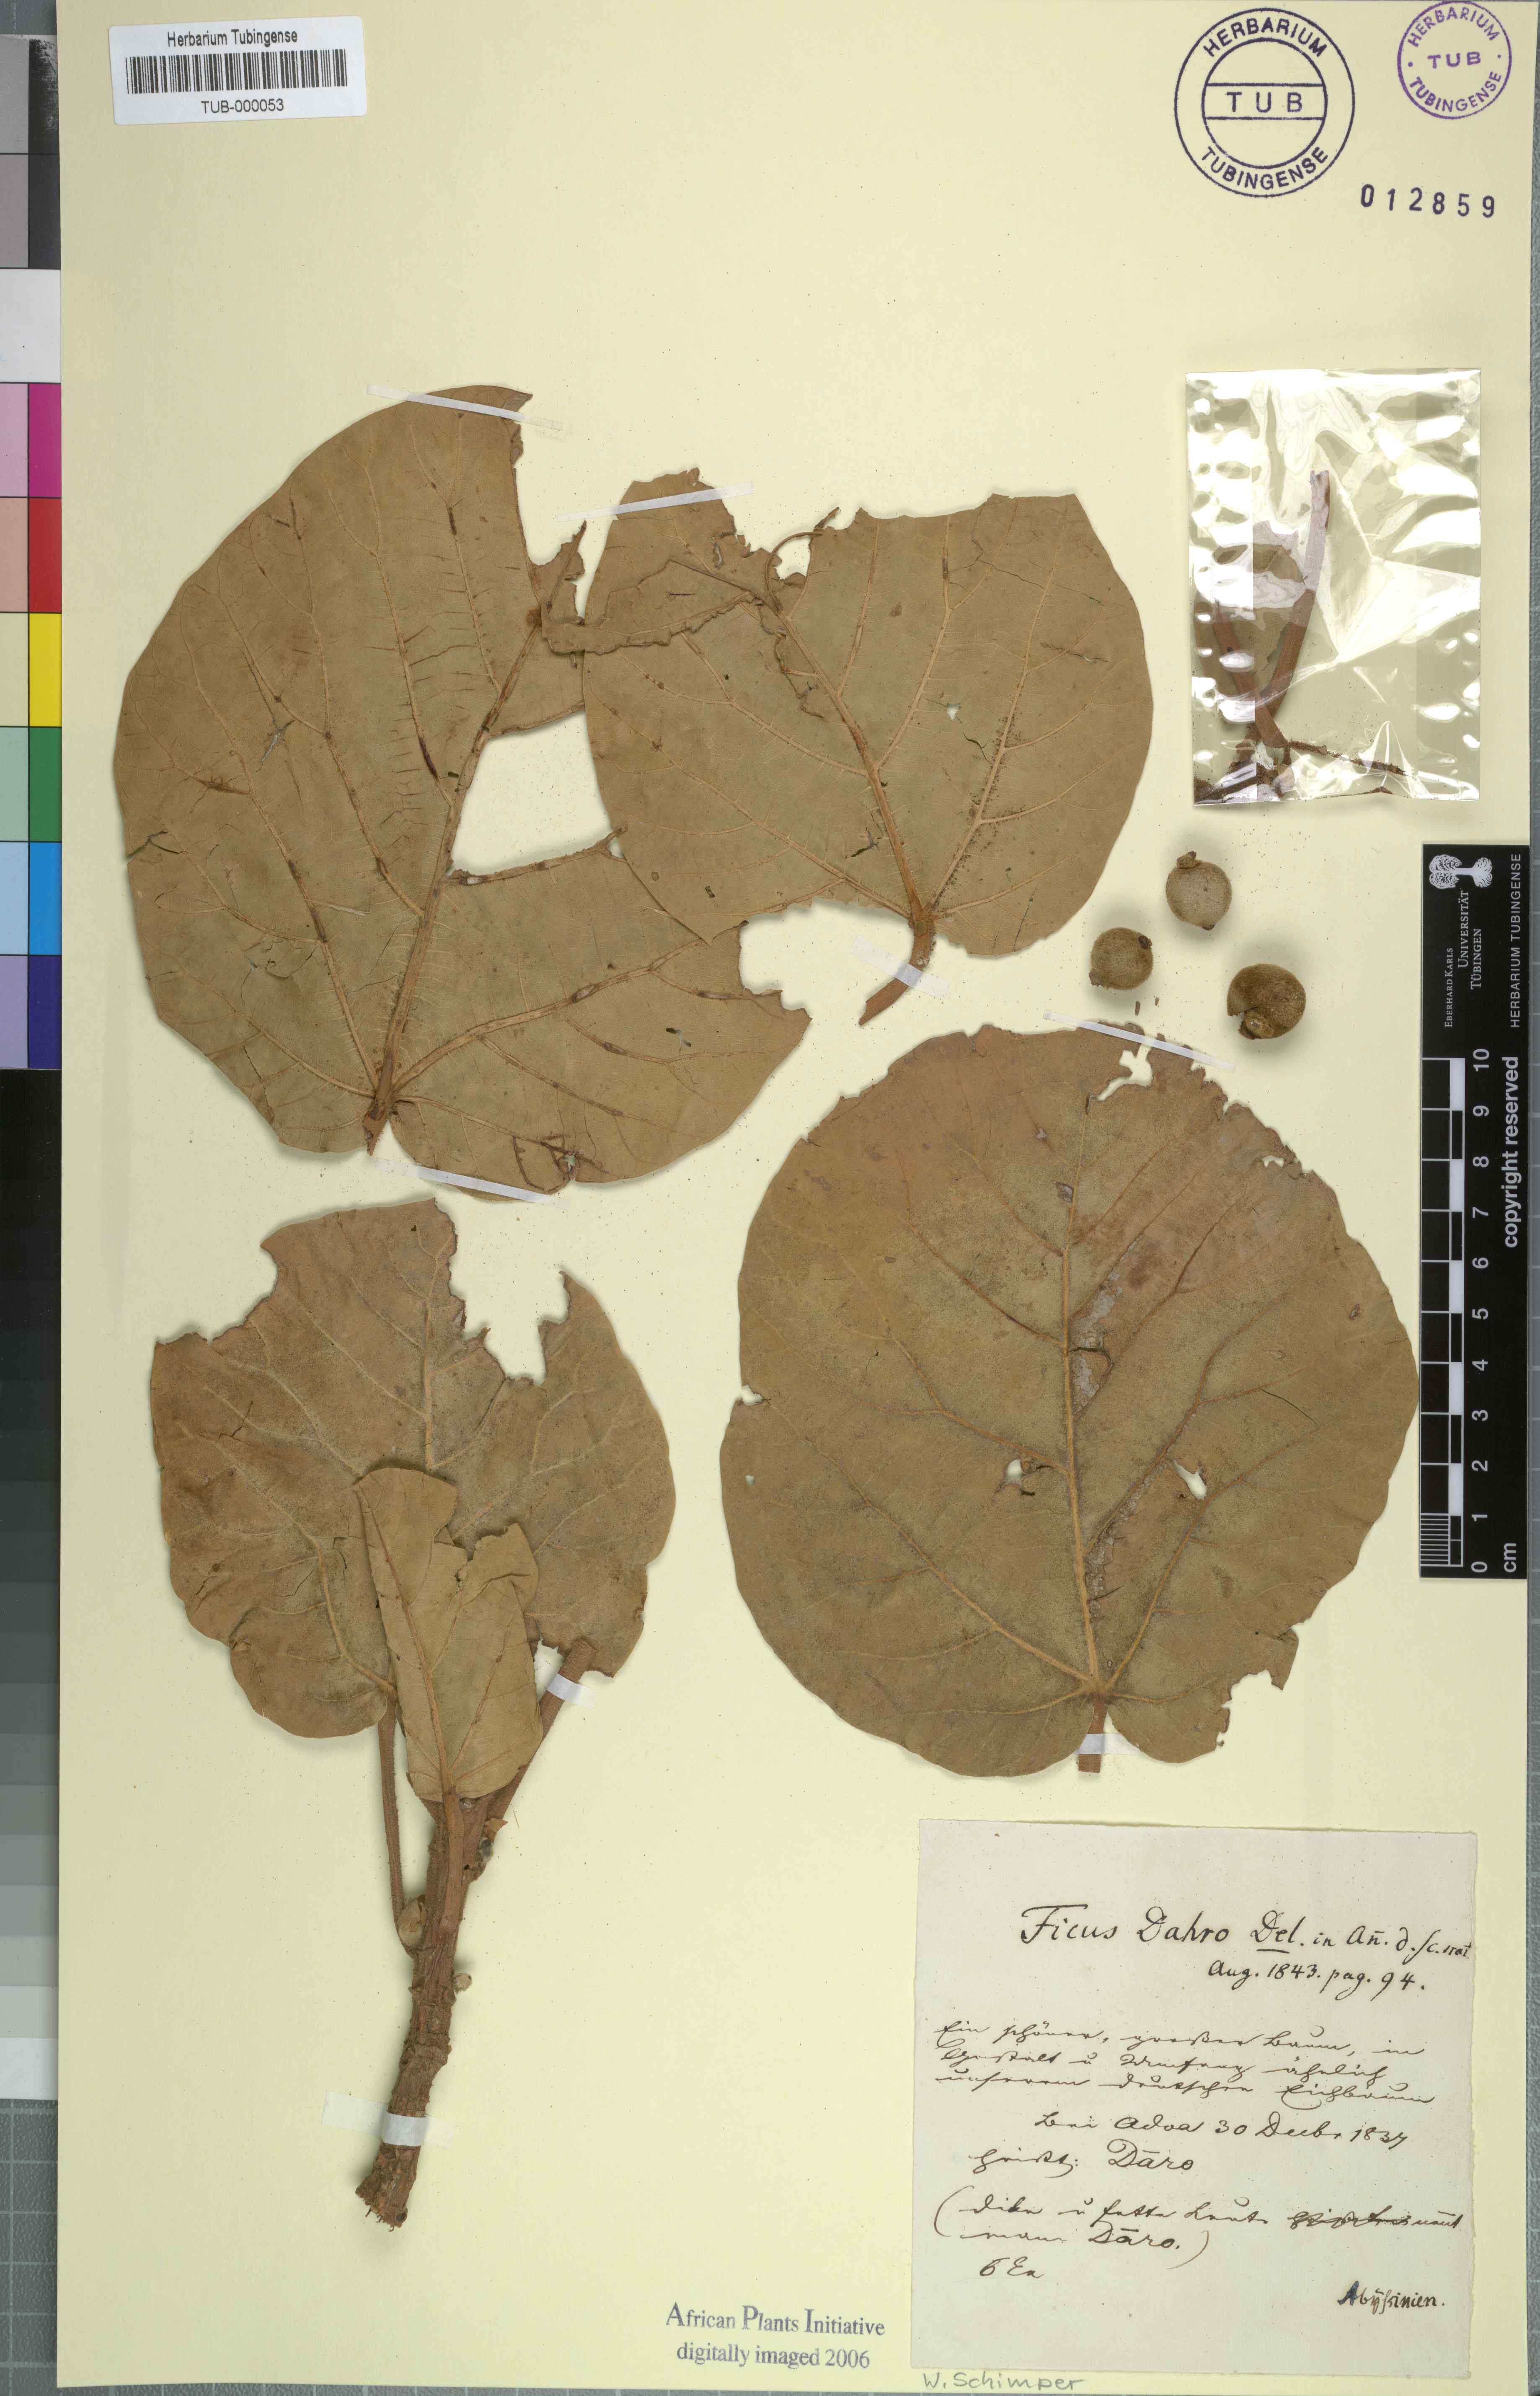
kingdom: Plantae
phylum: Tracheophyta
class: Magnoliopsida
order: Rosales
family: Moraceae
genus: Ficus
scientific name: Ficus vasta
